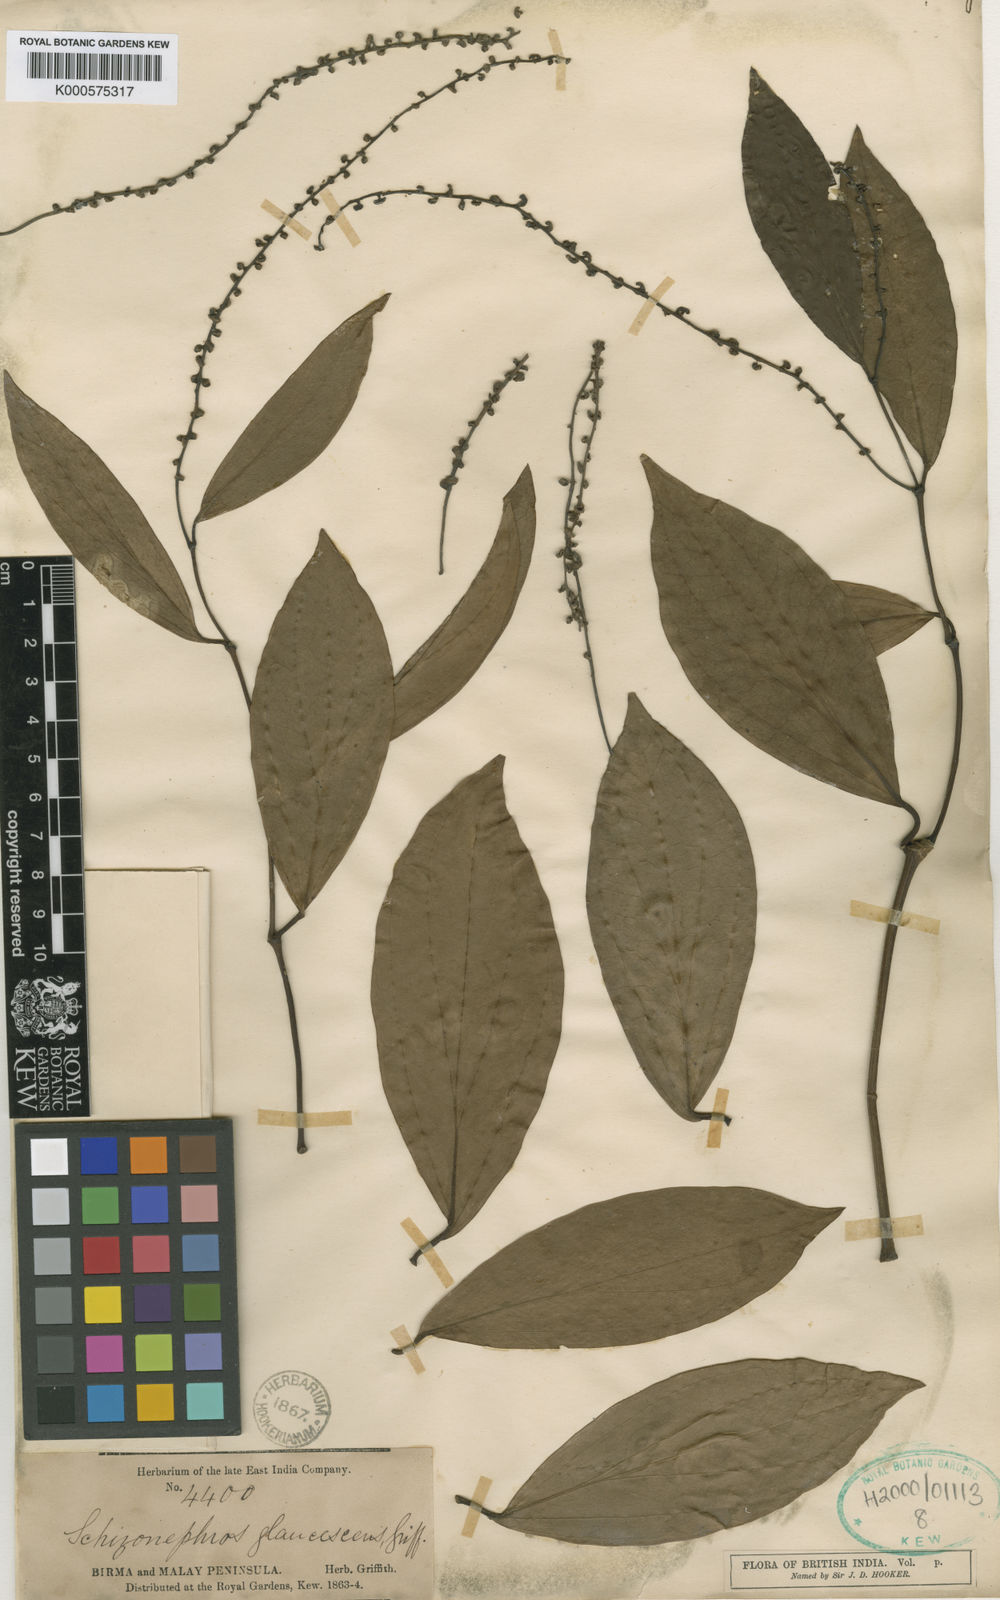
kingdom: Plantae
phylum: Tracheophyta
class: Magnoliopsida
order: Piperales
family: Piperaceae
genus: Piper
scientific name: Piper schizonephros
